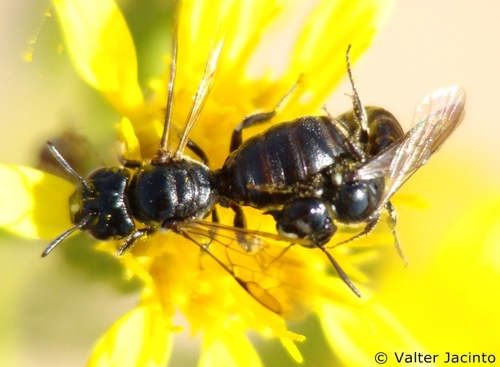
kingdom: Animalia
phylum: Arthropoda
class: Insecta
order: Hymenoptera
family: Apidae
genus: Ceratina
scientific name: Ceratina cucurbitina
